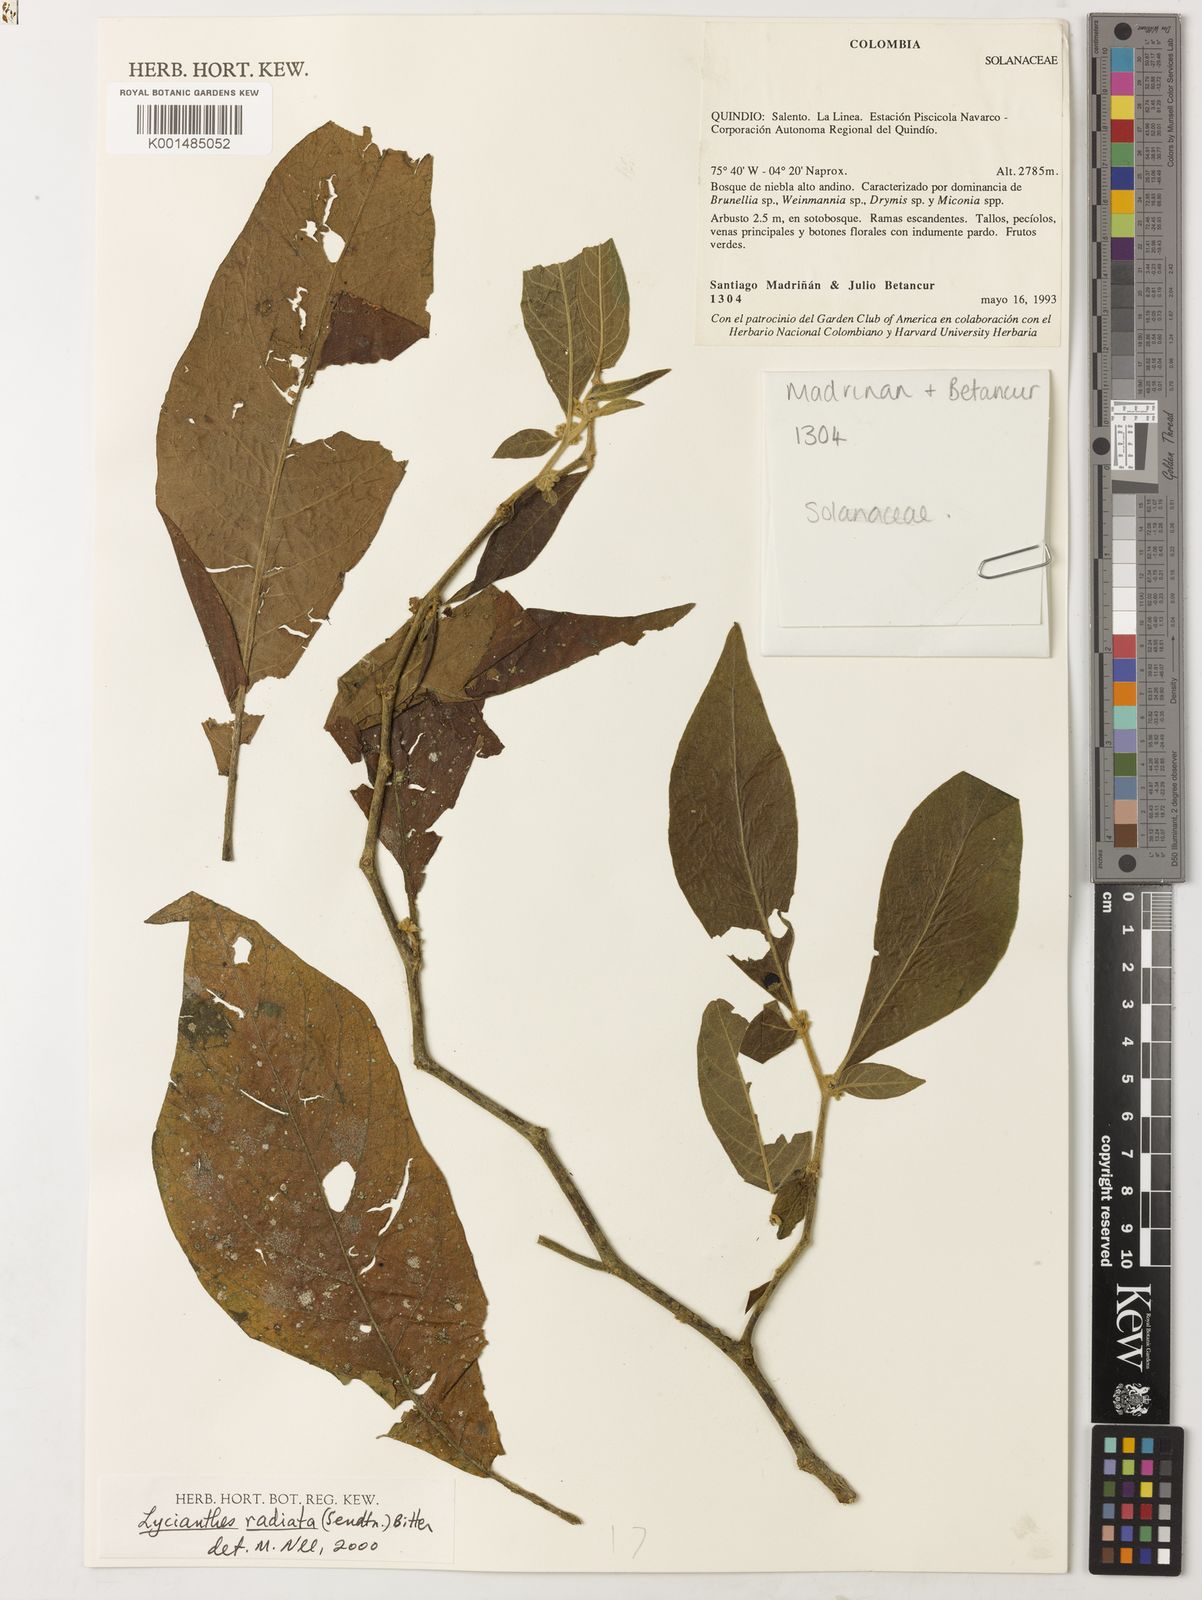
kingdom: Plantae
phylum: Tracheophyta
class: Magnoliopsida
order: Solanales
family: Solanaceae
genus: Lycianthes
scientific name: Lycianthes radiata
